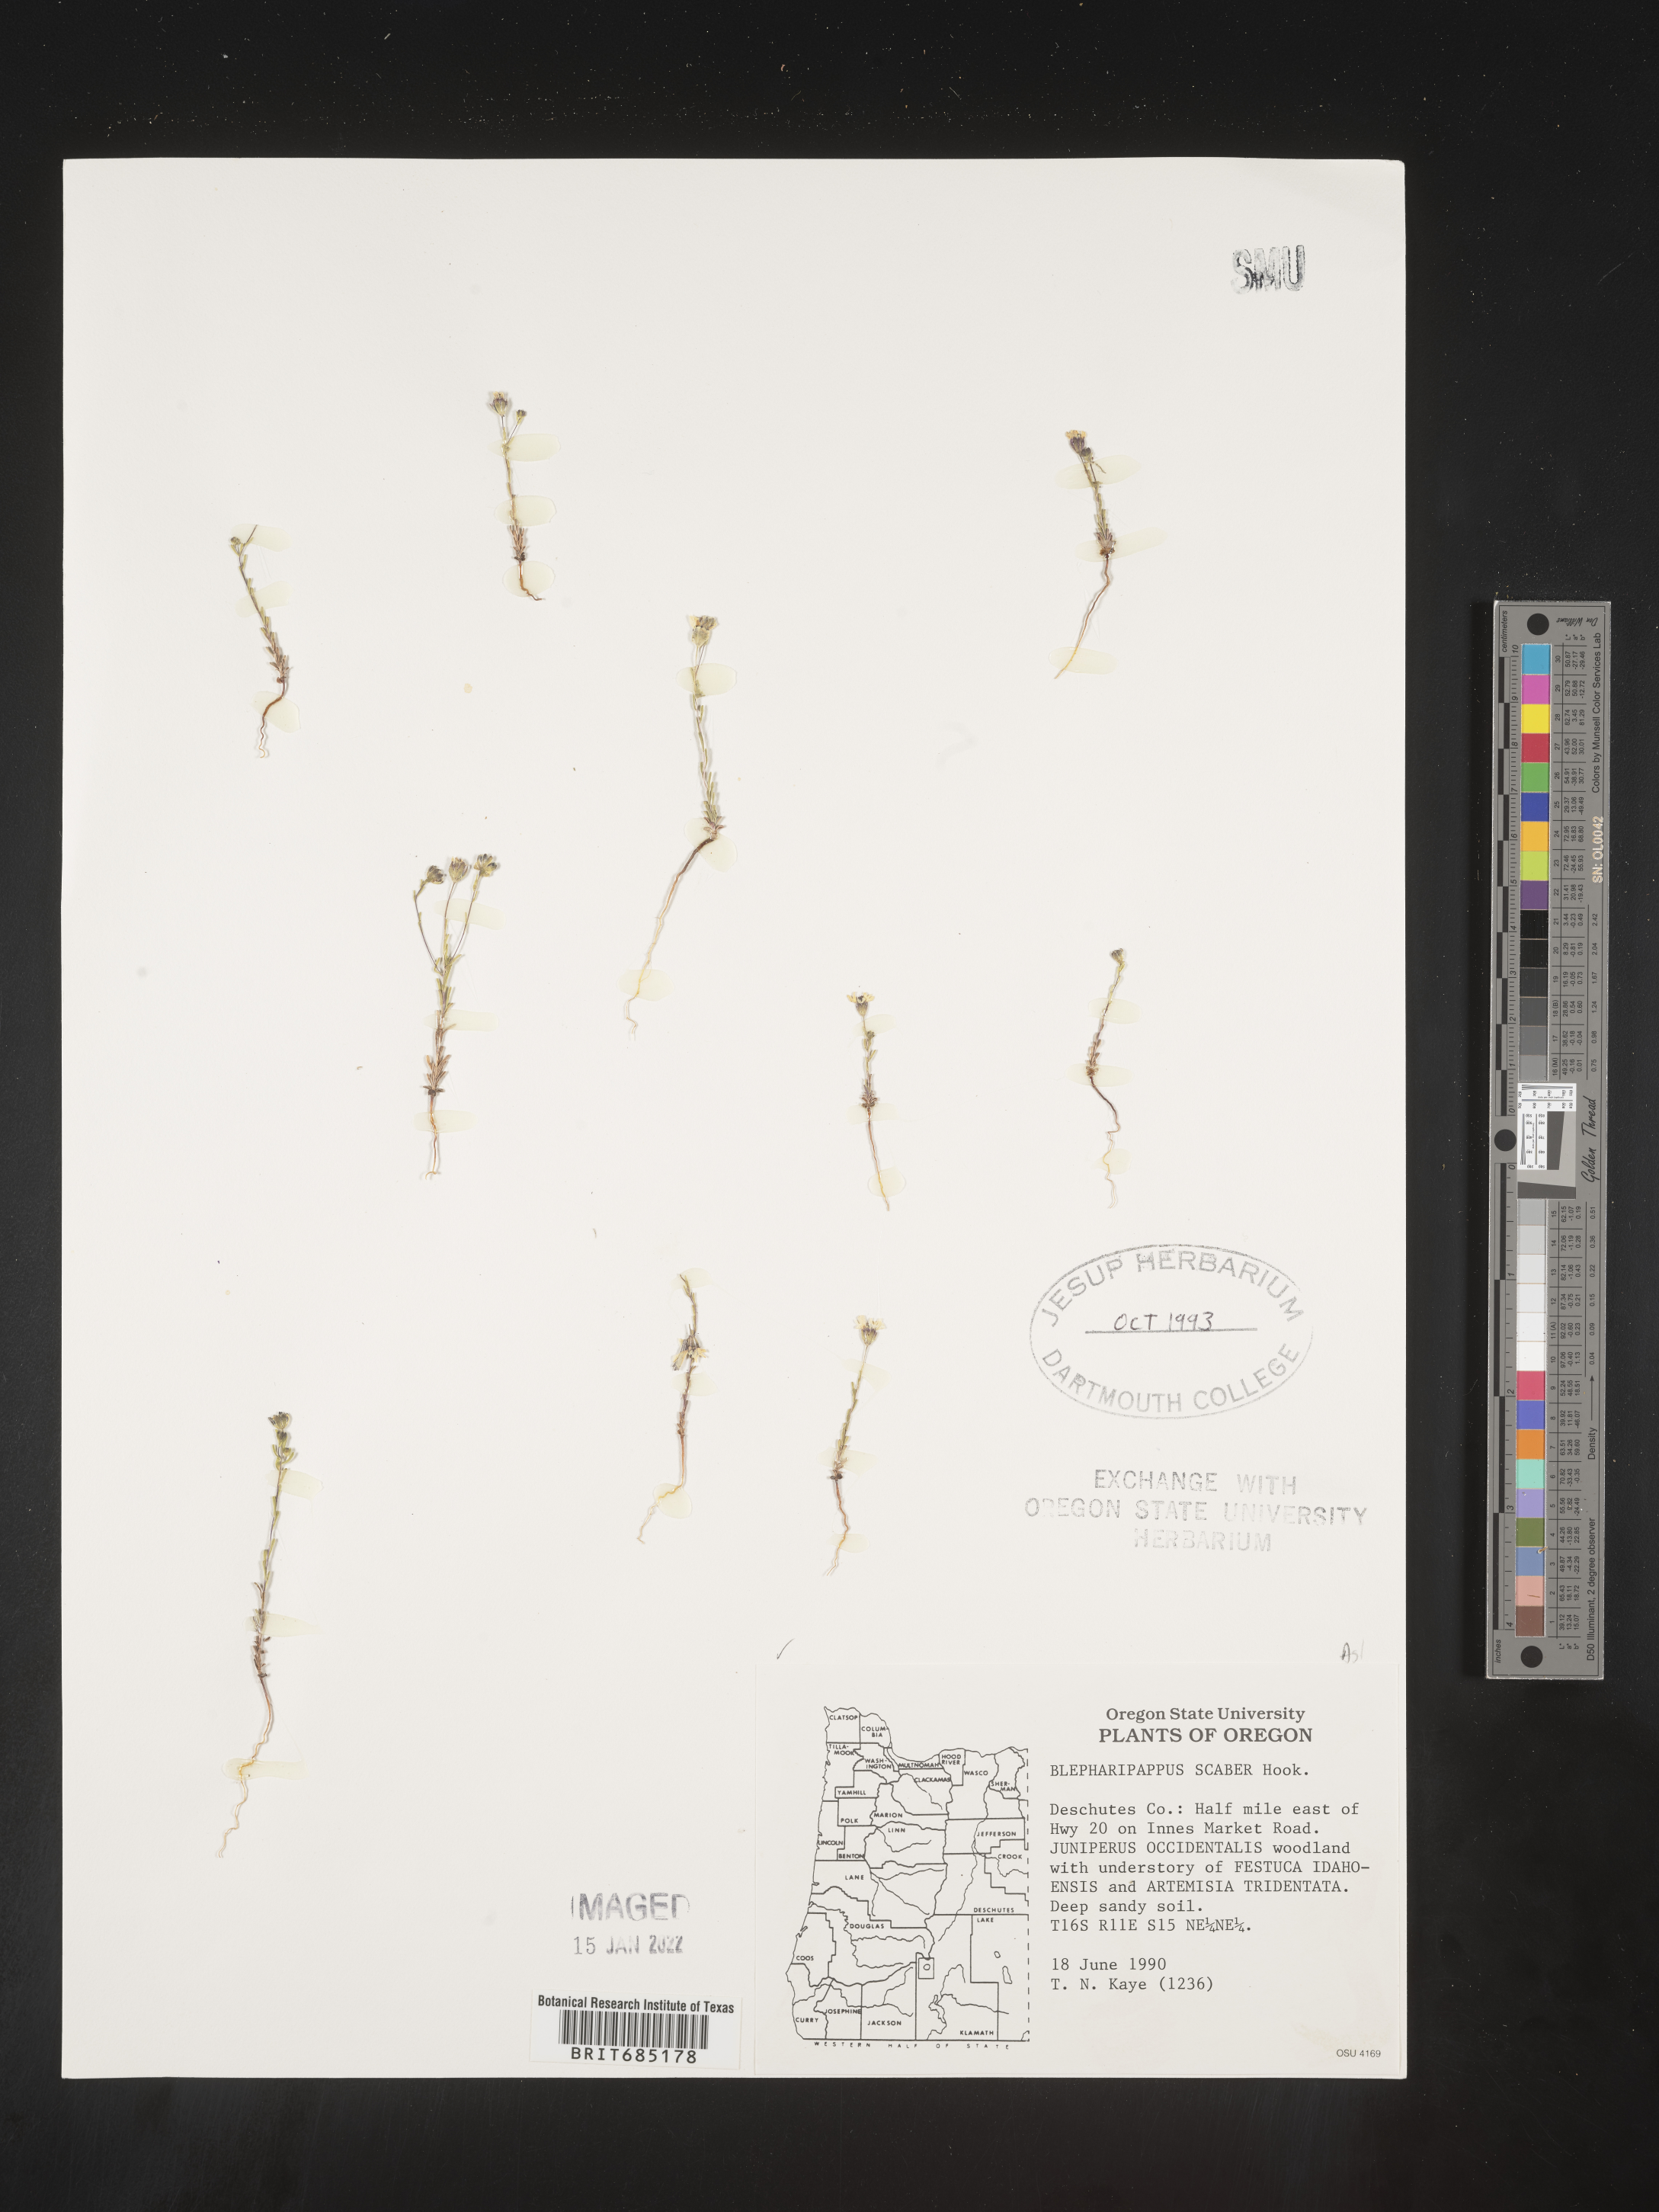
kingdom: Plantae
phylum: Tracheophyta
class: Magnoliopsida
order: Asterales
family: Asteraceae
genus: Blepharipappus
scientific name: Blepharipappus
